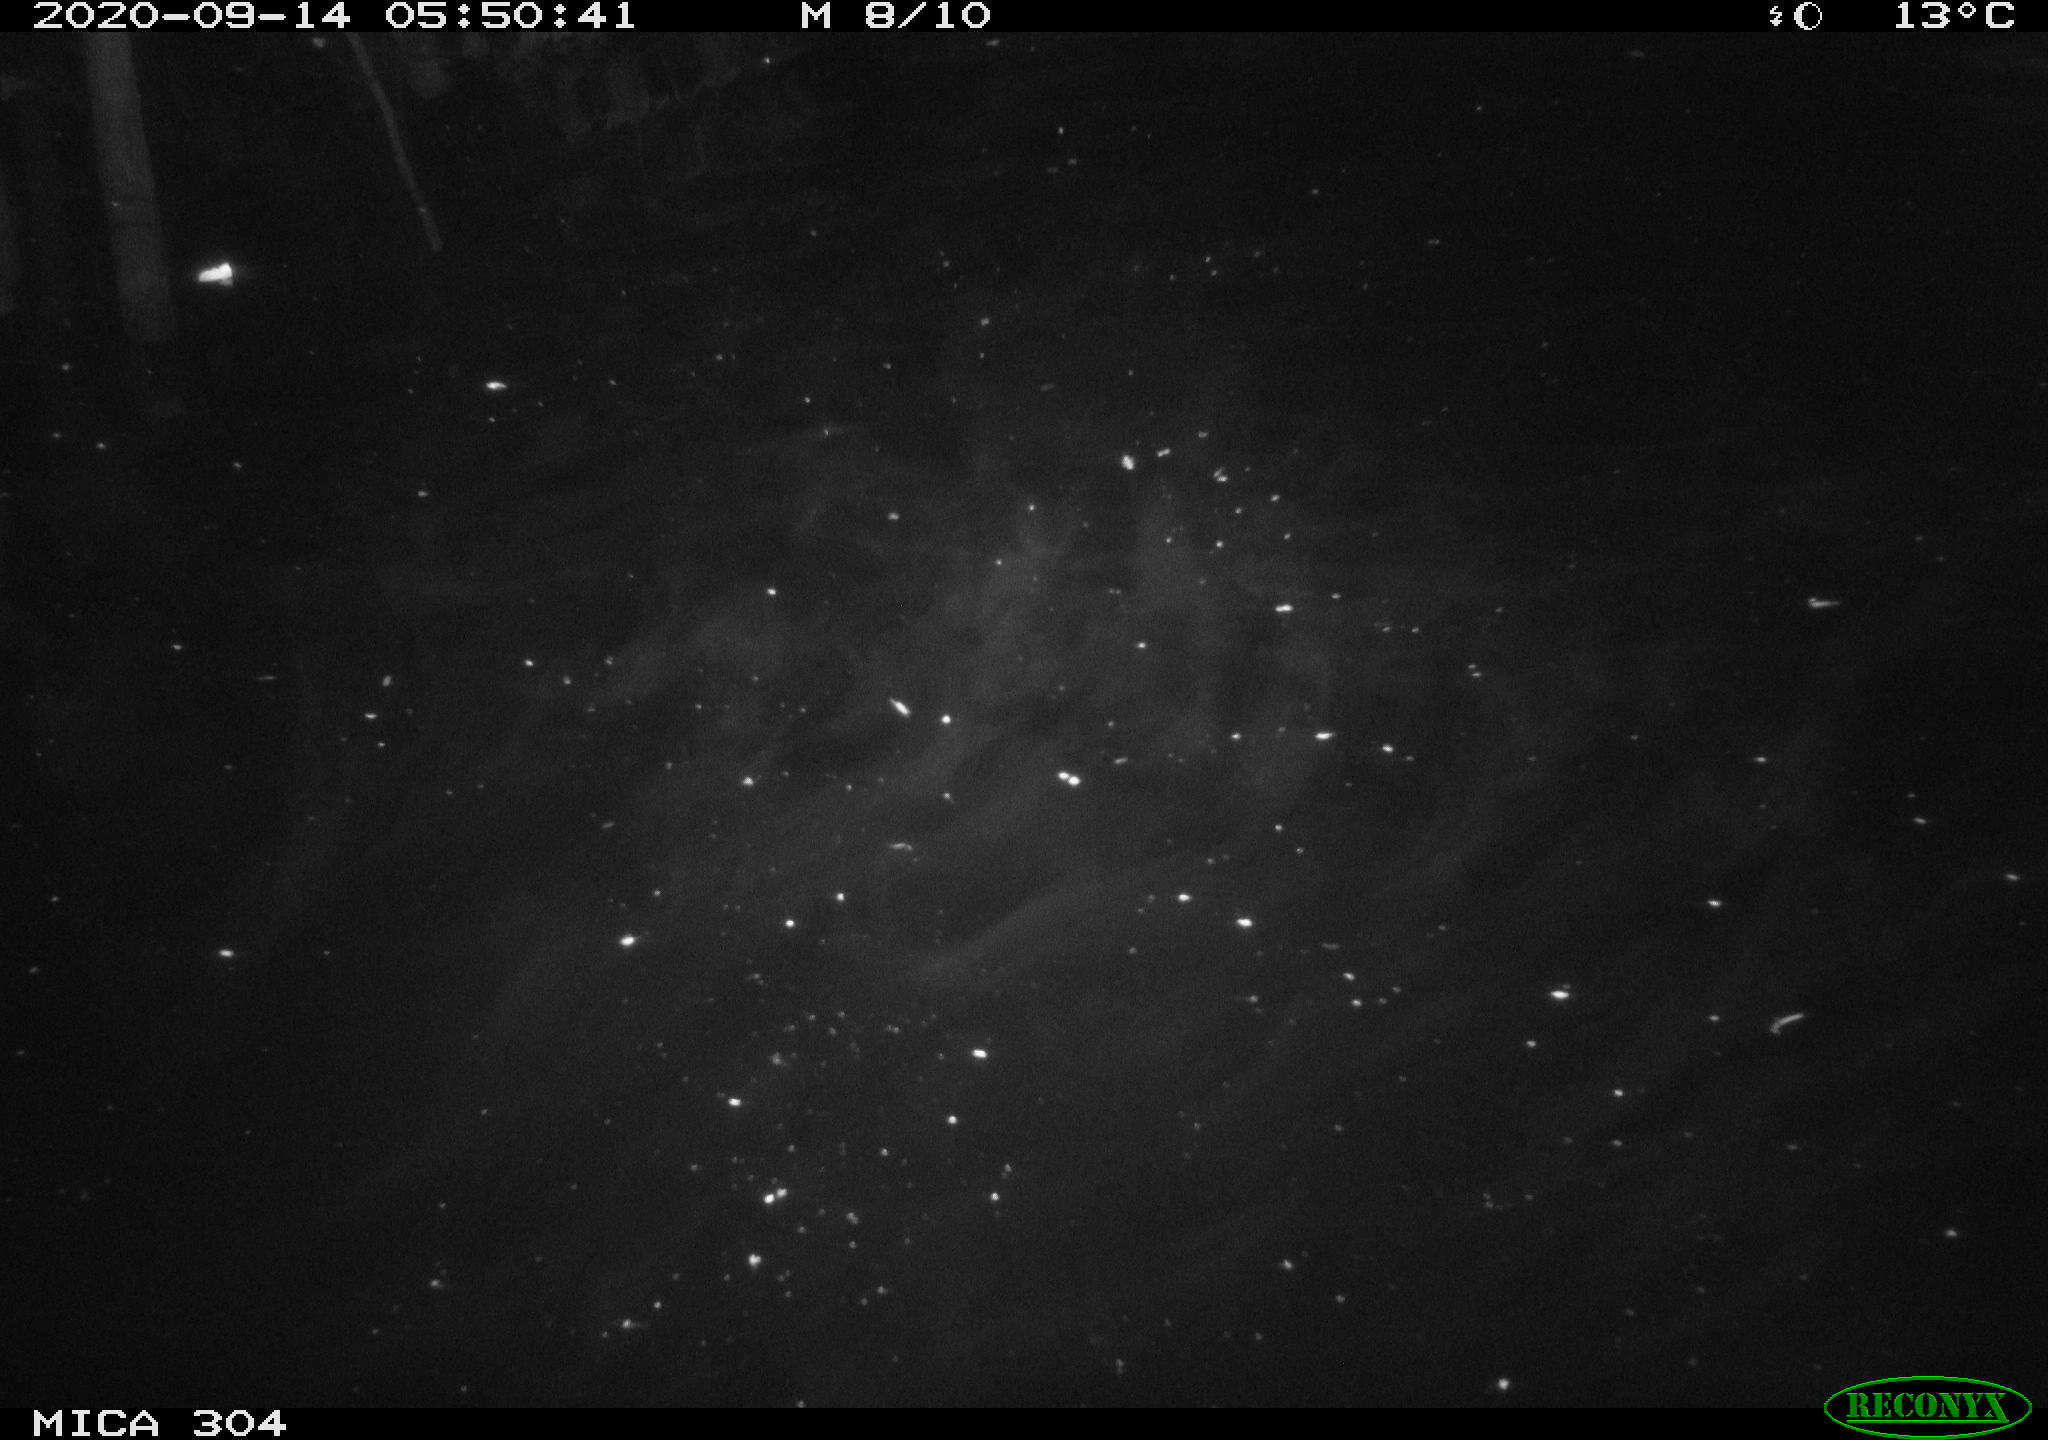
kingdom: Animalia
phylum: Chordata
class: Mammalia
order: Rodentia
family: Cricetidae
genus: Ondatra
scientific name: Ondatra zibethicus
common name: Muskrat
